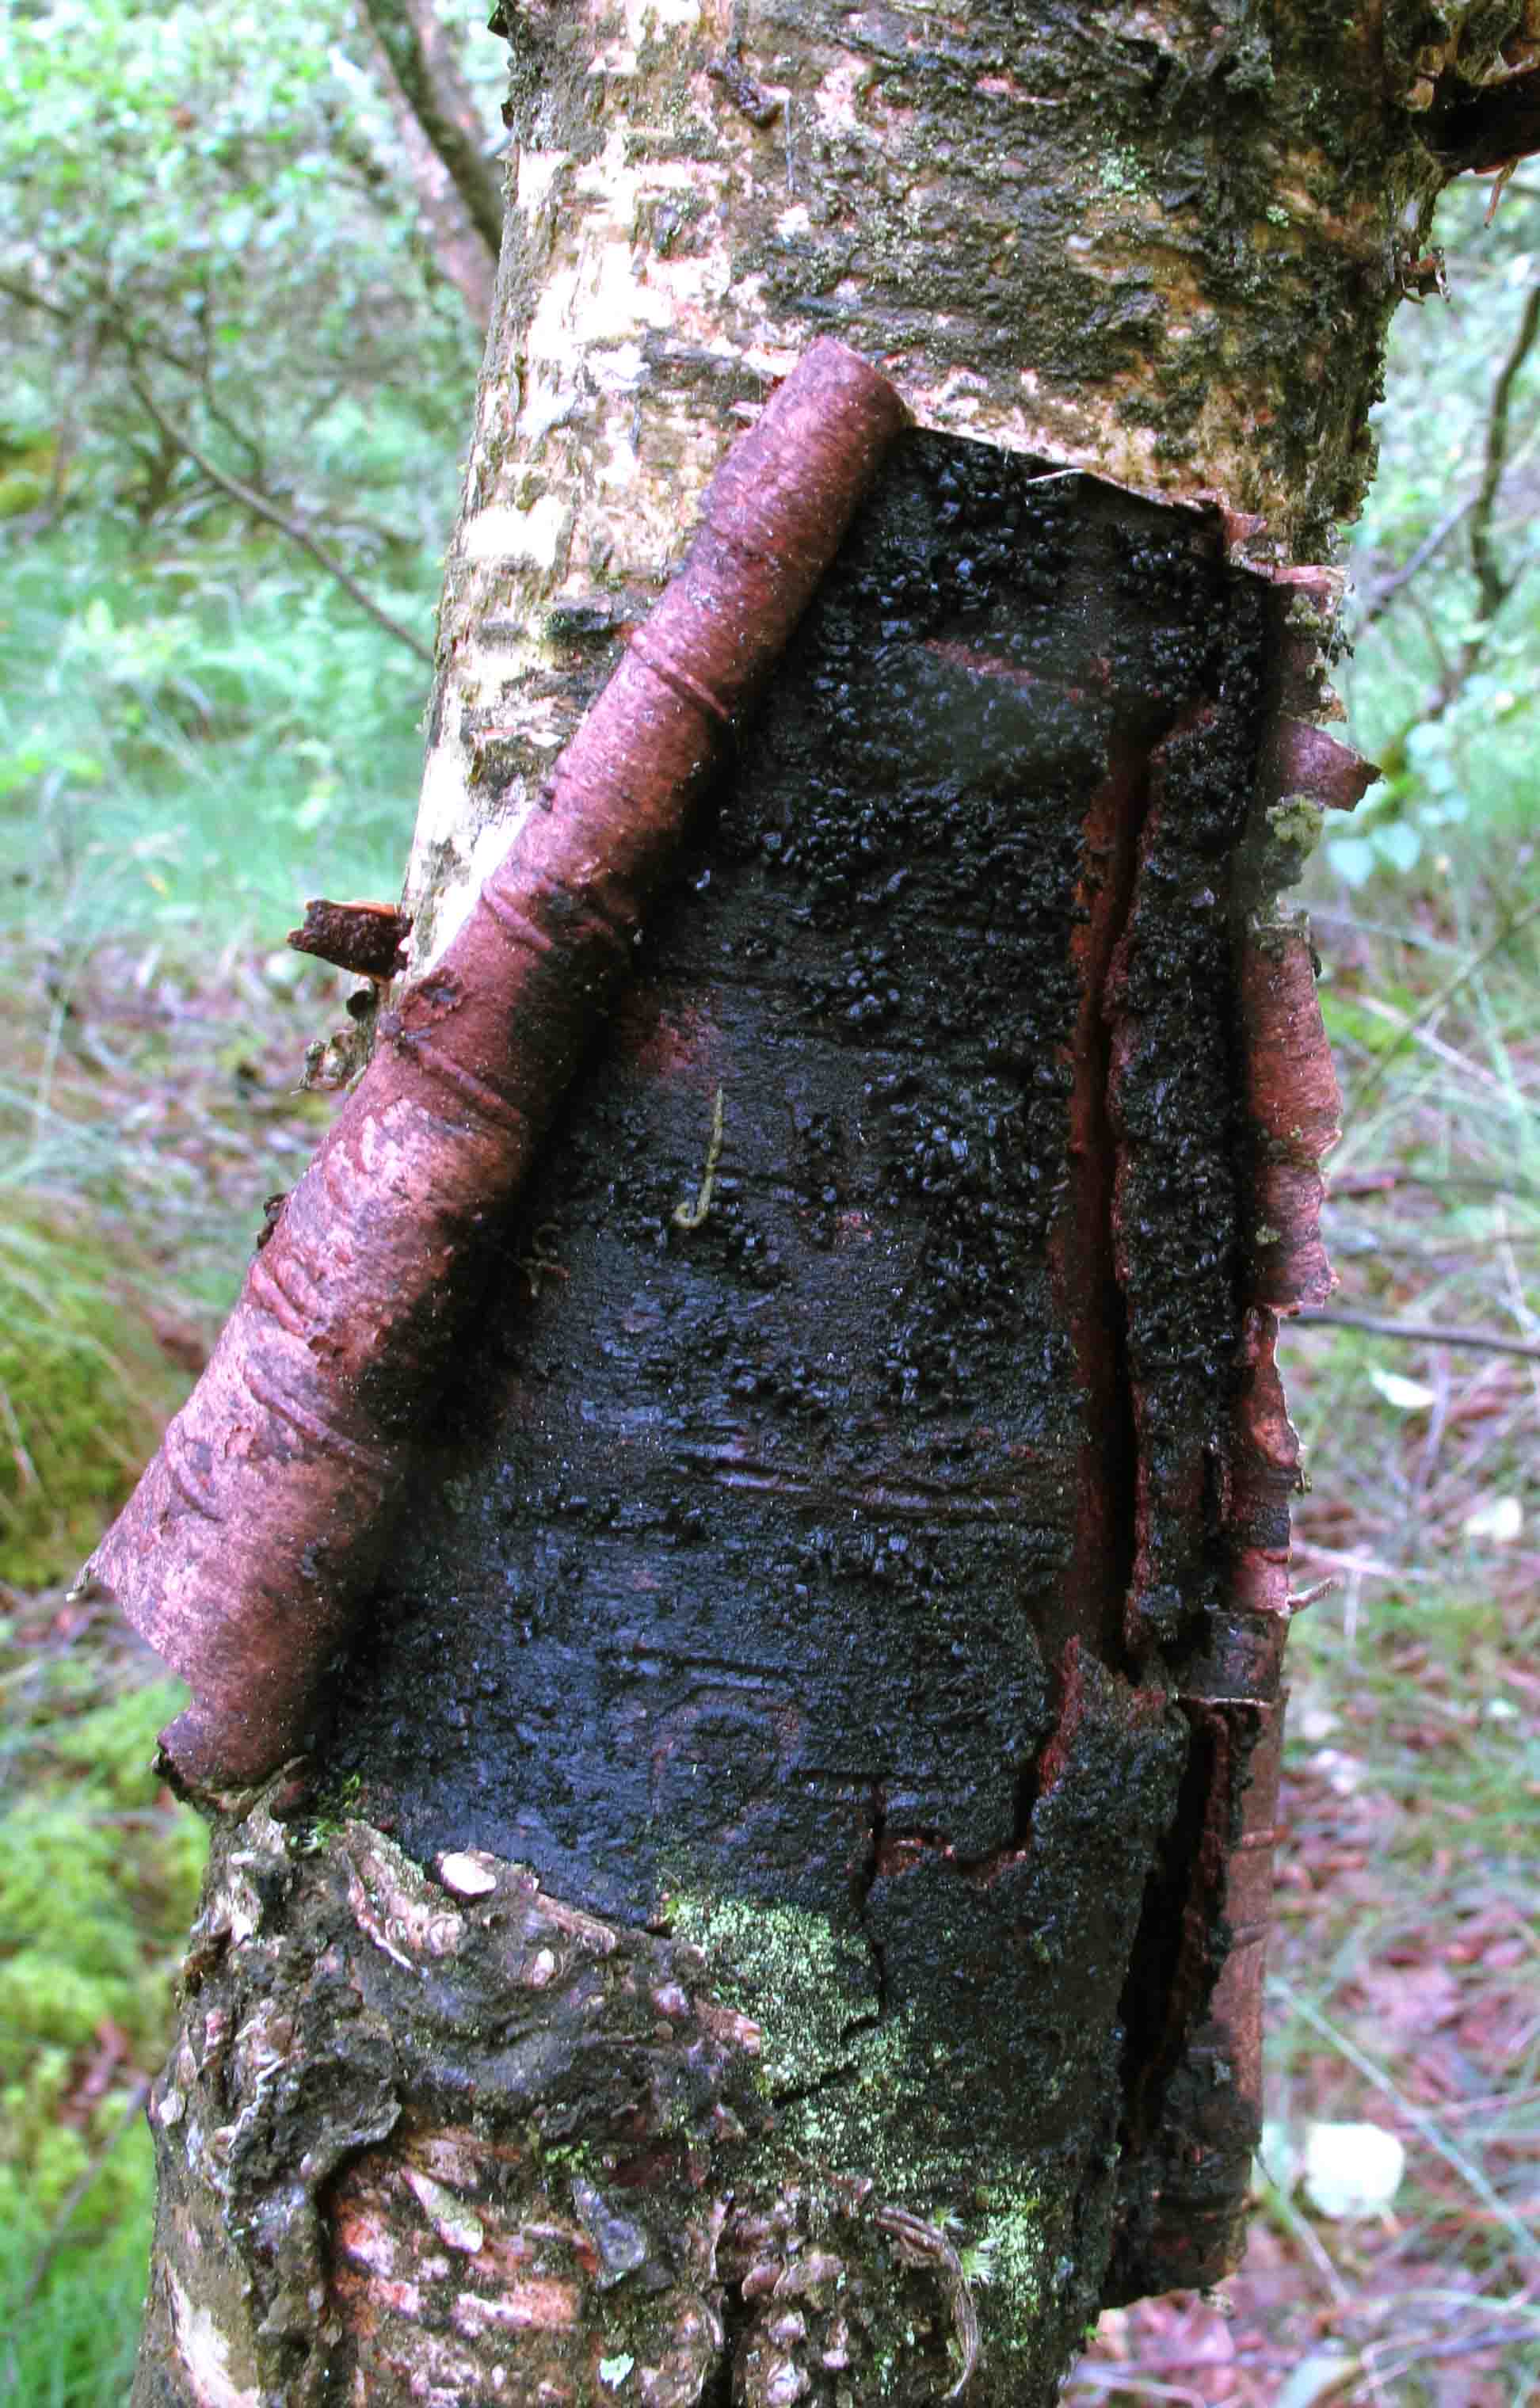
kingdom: Fungi
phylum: Ascomycota
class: Sordariomycetes
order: Diaporthales
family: Gnomoniaceae
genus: Xenotypa
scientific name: Xenotypa aterrima
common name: Birch bark stripper
